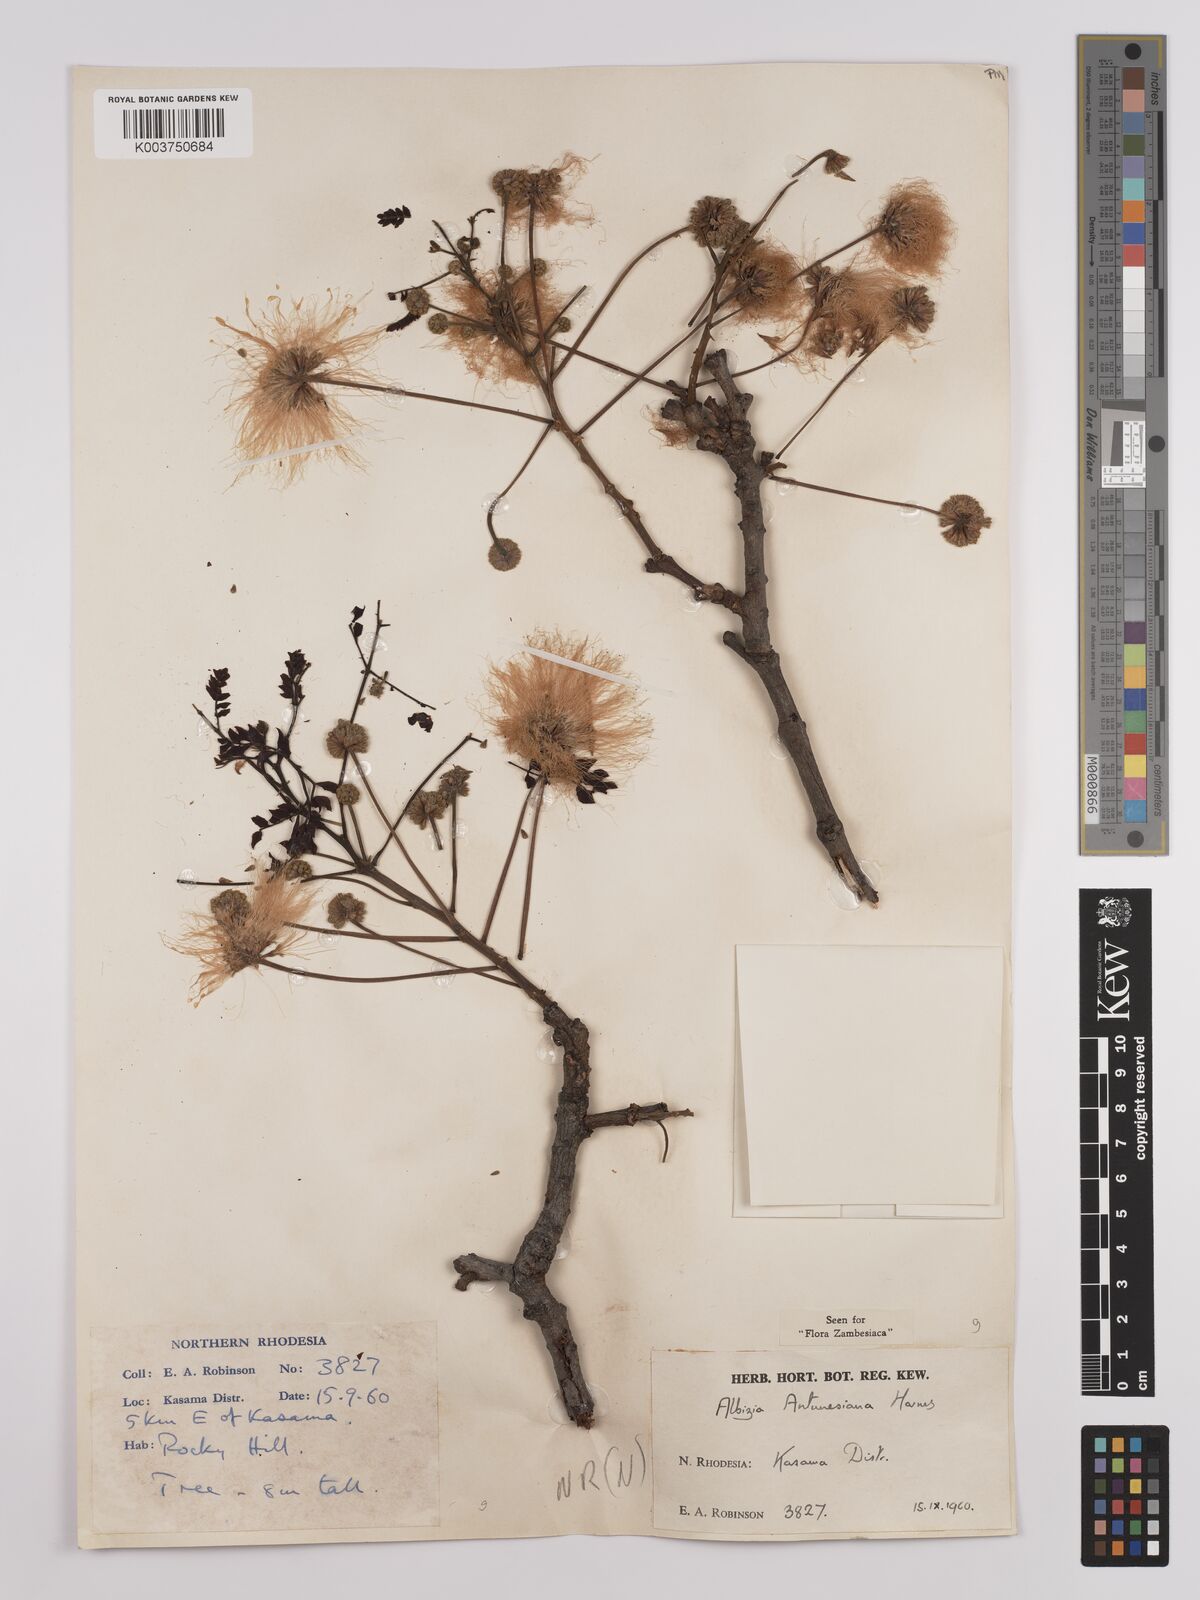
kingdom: Plantae
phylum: Tracheophyta
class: Magnoliopsida
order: Fabales
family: Fabaceae
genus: Albizia
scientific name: Albizia antunesiana
